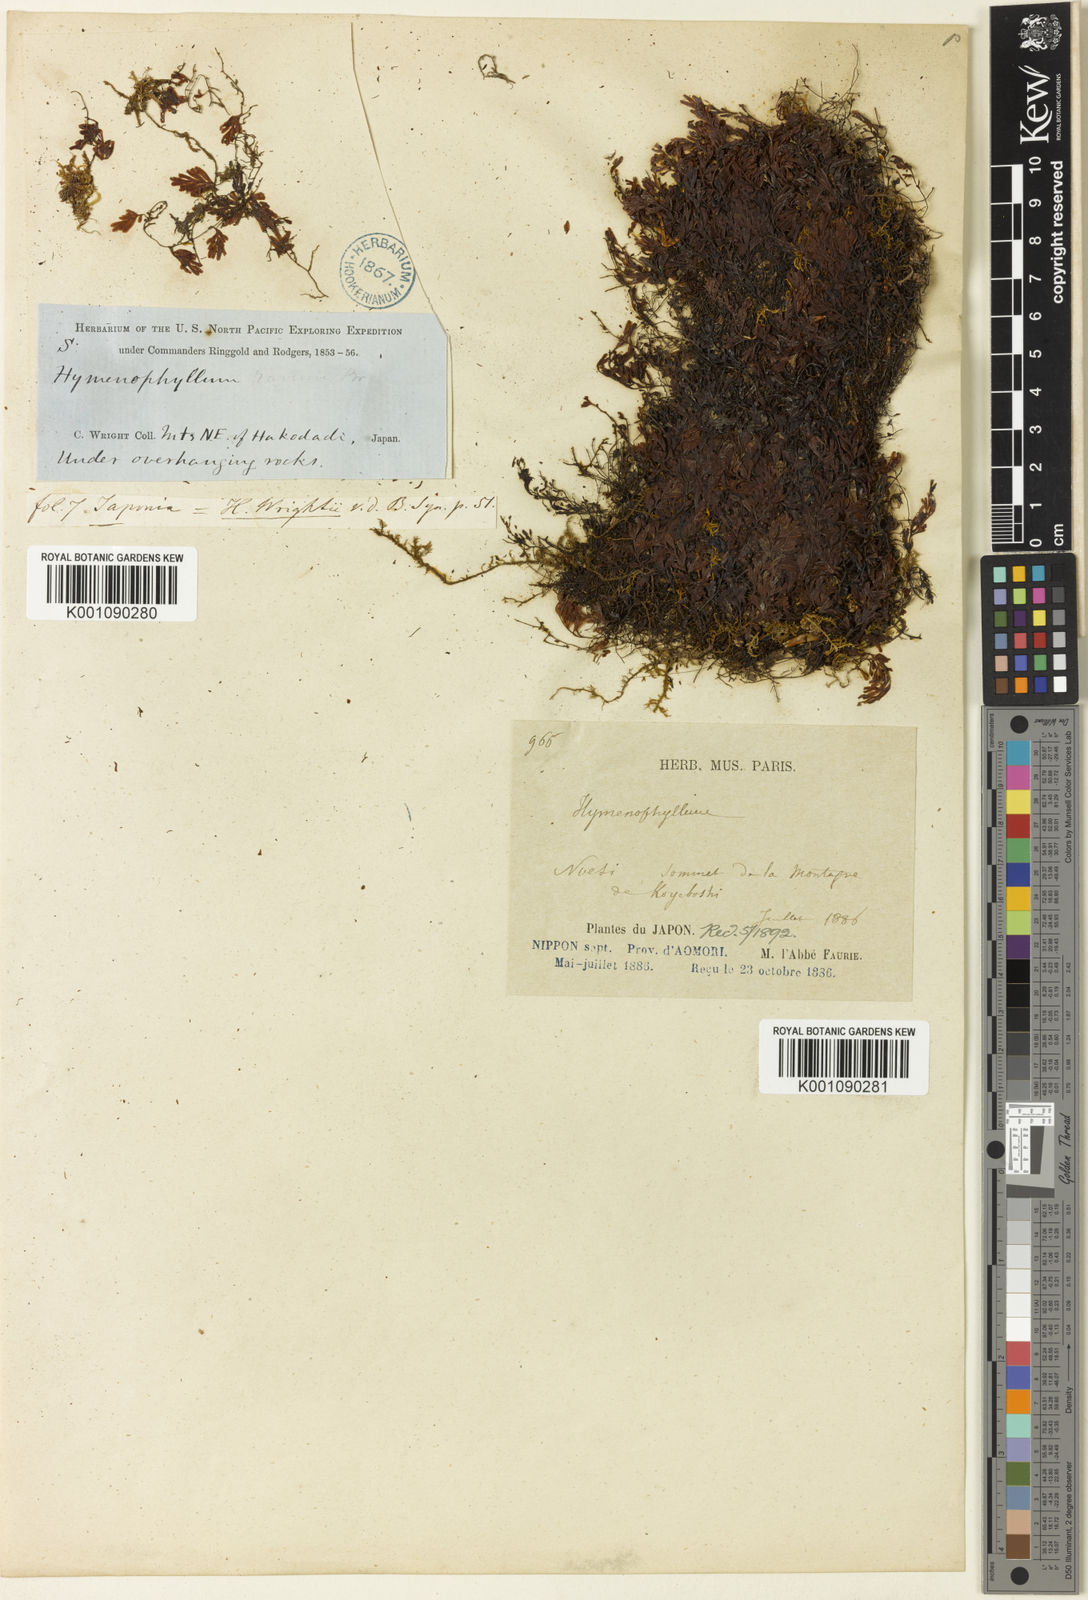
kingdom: Plantae
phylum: Tracheophyta
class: Polypodiopsida
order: Hymenophyllales
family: Hymenophyllaceae
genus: Hymenophyllum
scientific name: Hymenophyllum wrightii
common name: Wright's filmy fern
